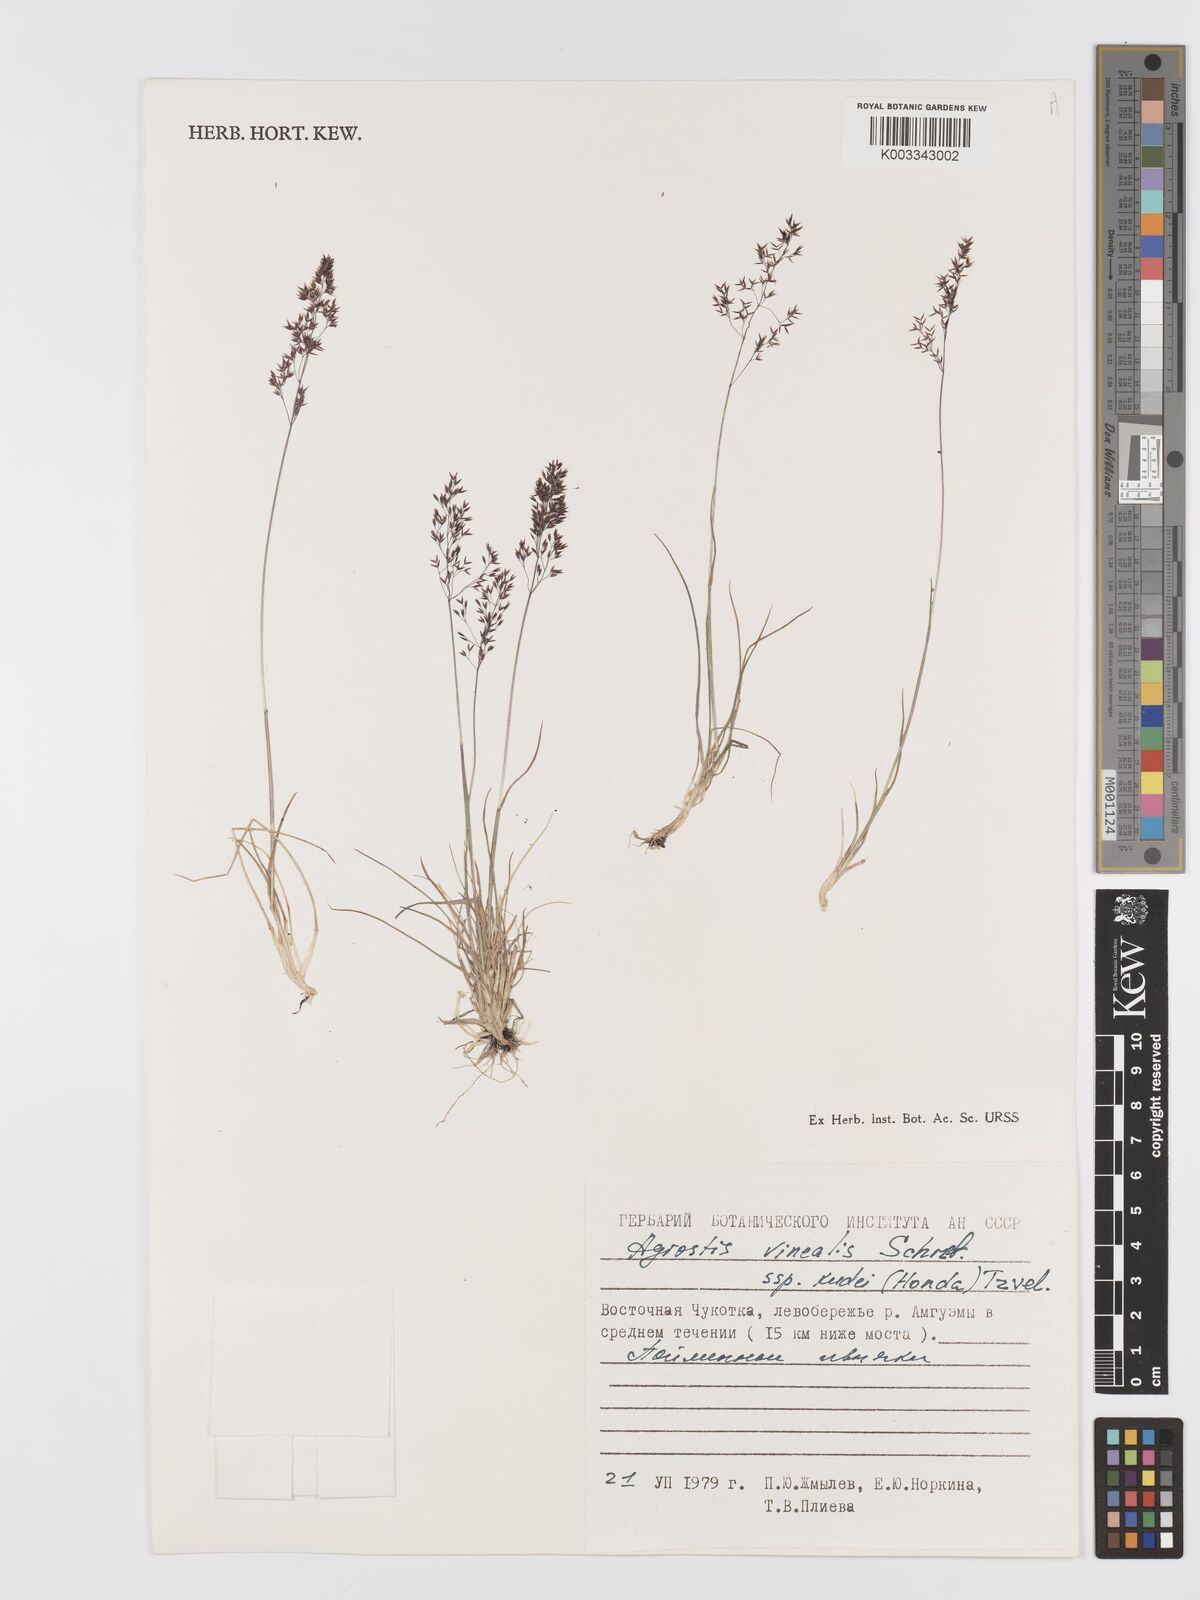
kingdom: Plantae
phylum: Tracheophyta
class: Liliopsida
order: Poales
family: Poaceae
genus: Agrostis
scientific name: Agrostis canina
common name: Velvet bent
